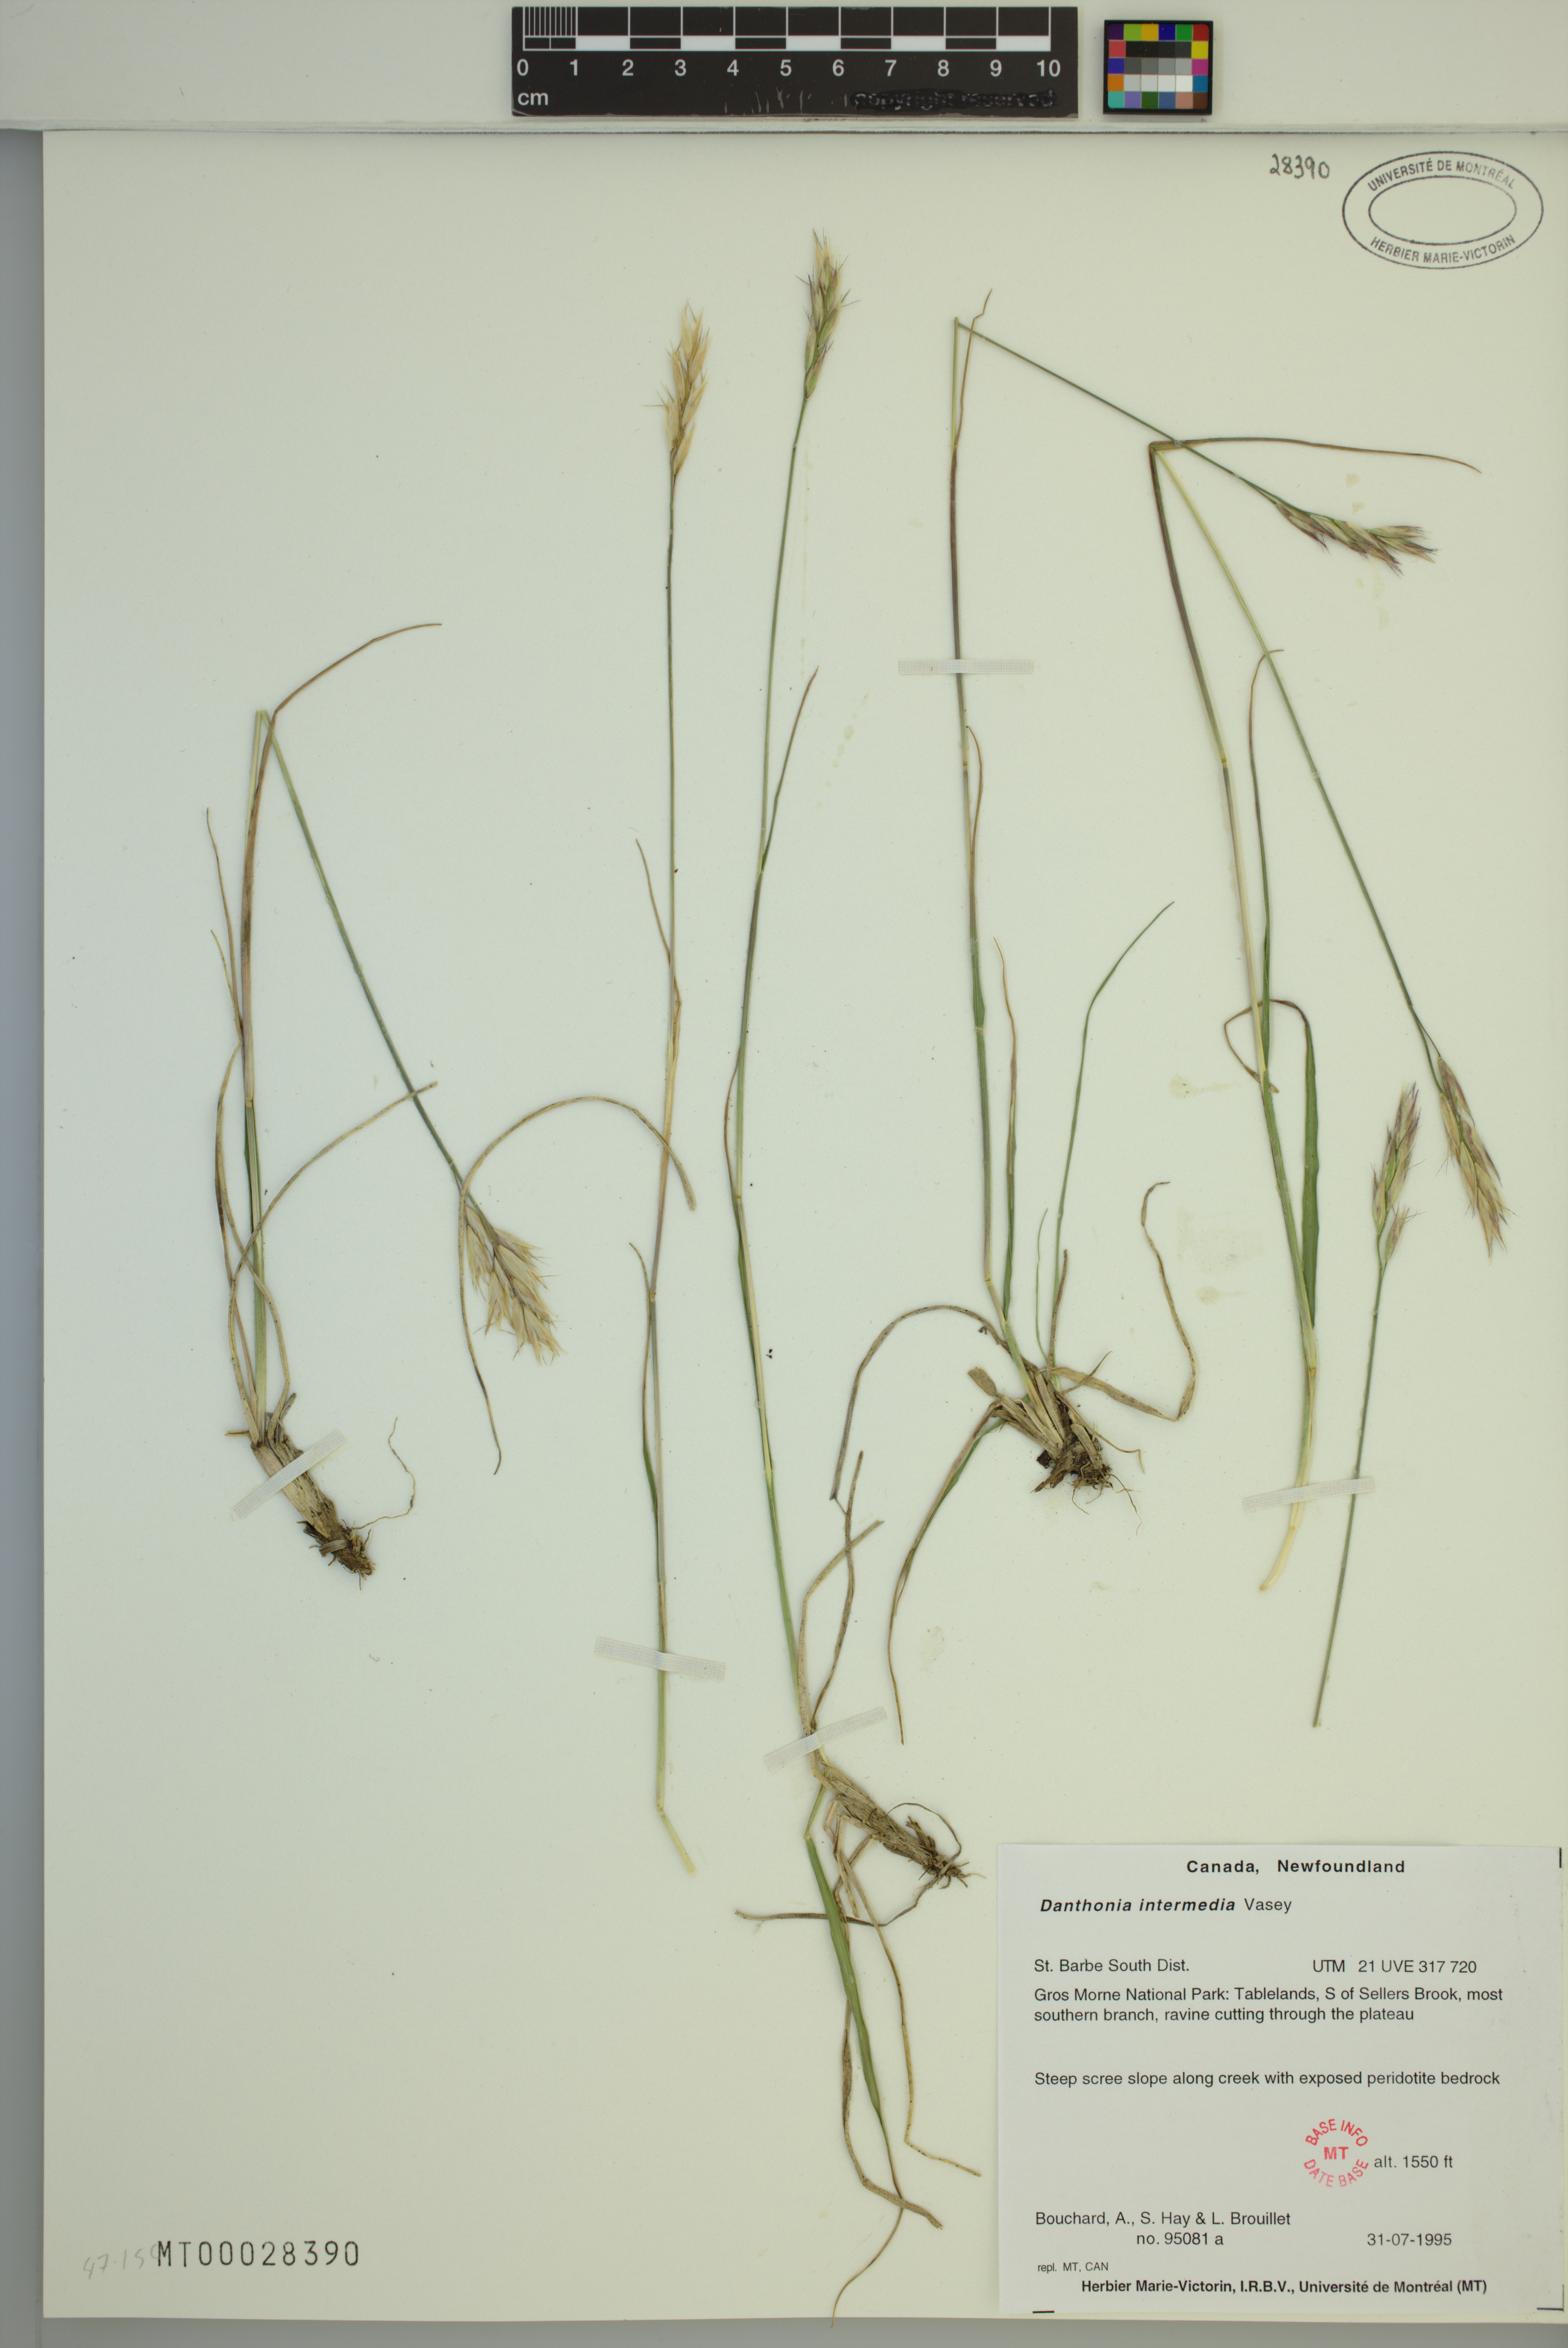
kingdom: Plantae
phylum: Tracheophyta
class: Liliopsida
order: Poales
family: Poaceae
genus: Danthonia
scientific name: Danthonia intermedia
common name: Intermediate oat grass
